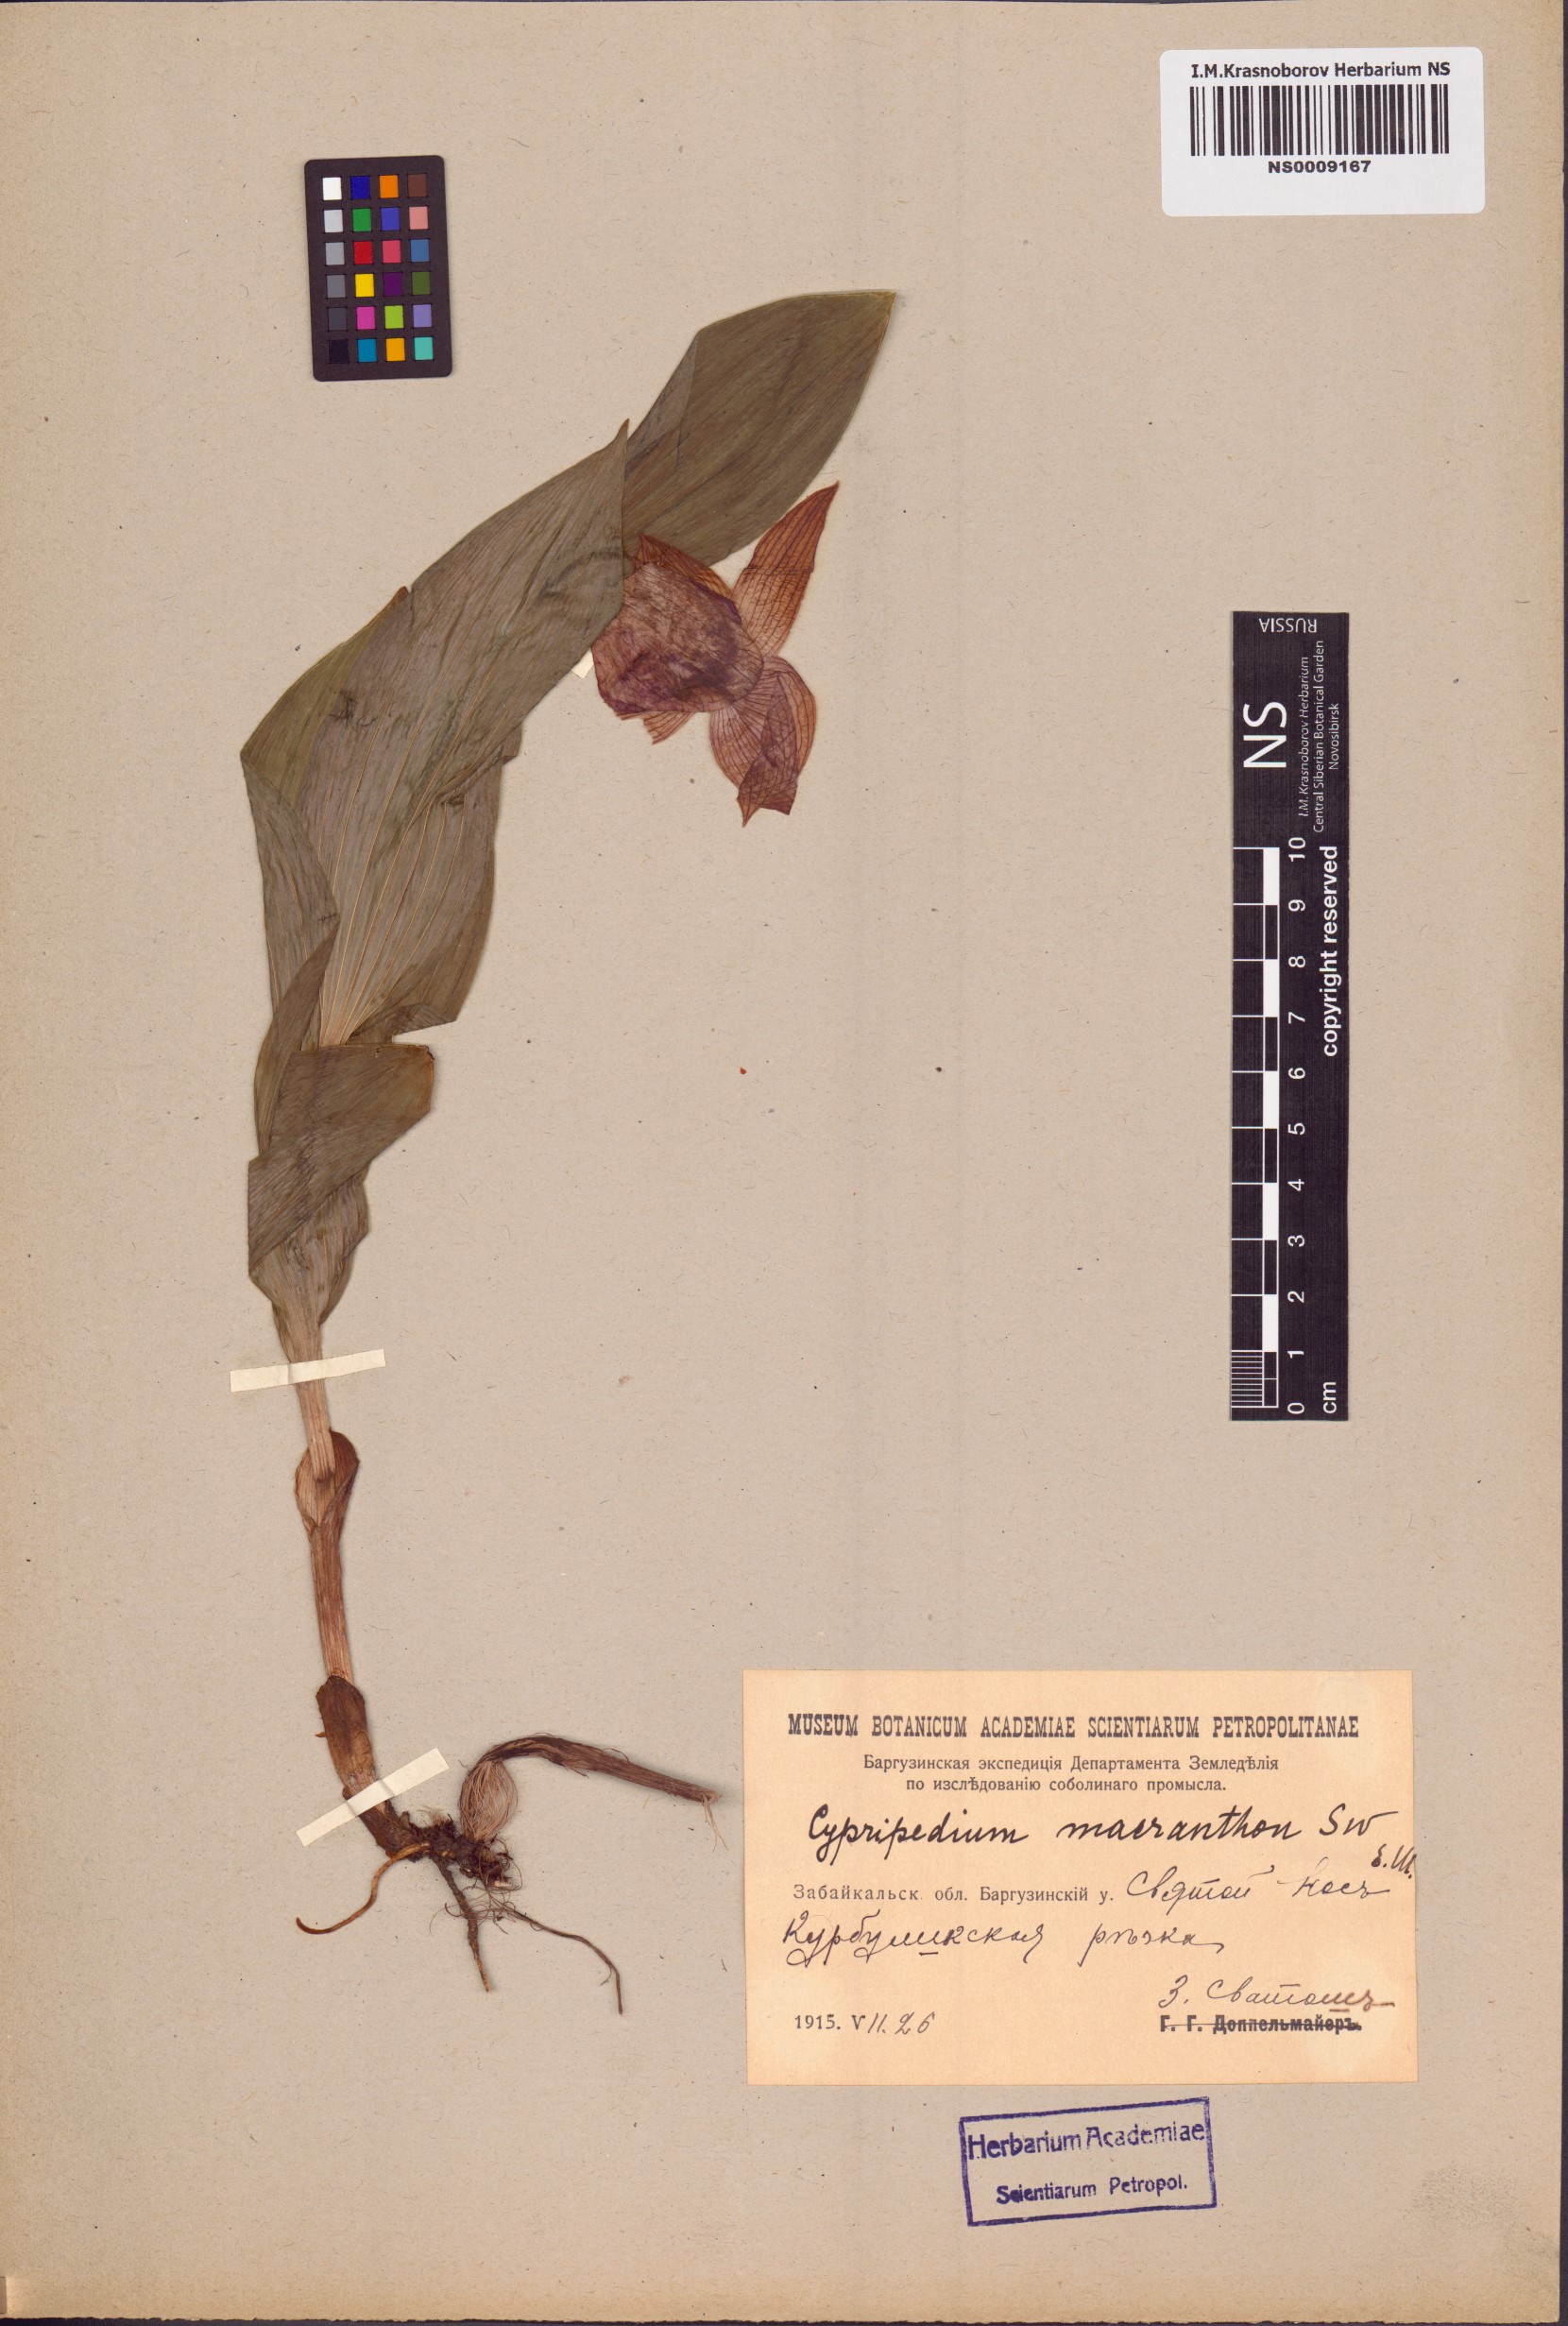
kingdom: Plantae
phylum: Tracheophyta
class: Liliopsida
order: Asparagales
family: Orchidaceae
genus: Cypripedium
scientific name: Cypripedium macranthos
